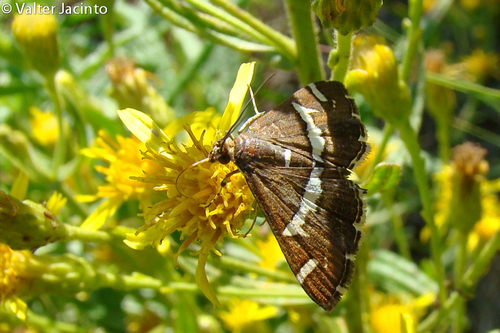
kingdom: Animalia
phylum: Arthropoda
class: Insecta
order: Lepidoptera
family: Crambidae
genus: Spoladea
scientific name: Spoladea recurvalis
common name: Beet webworm moth
